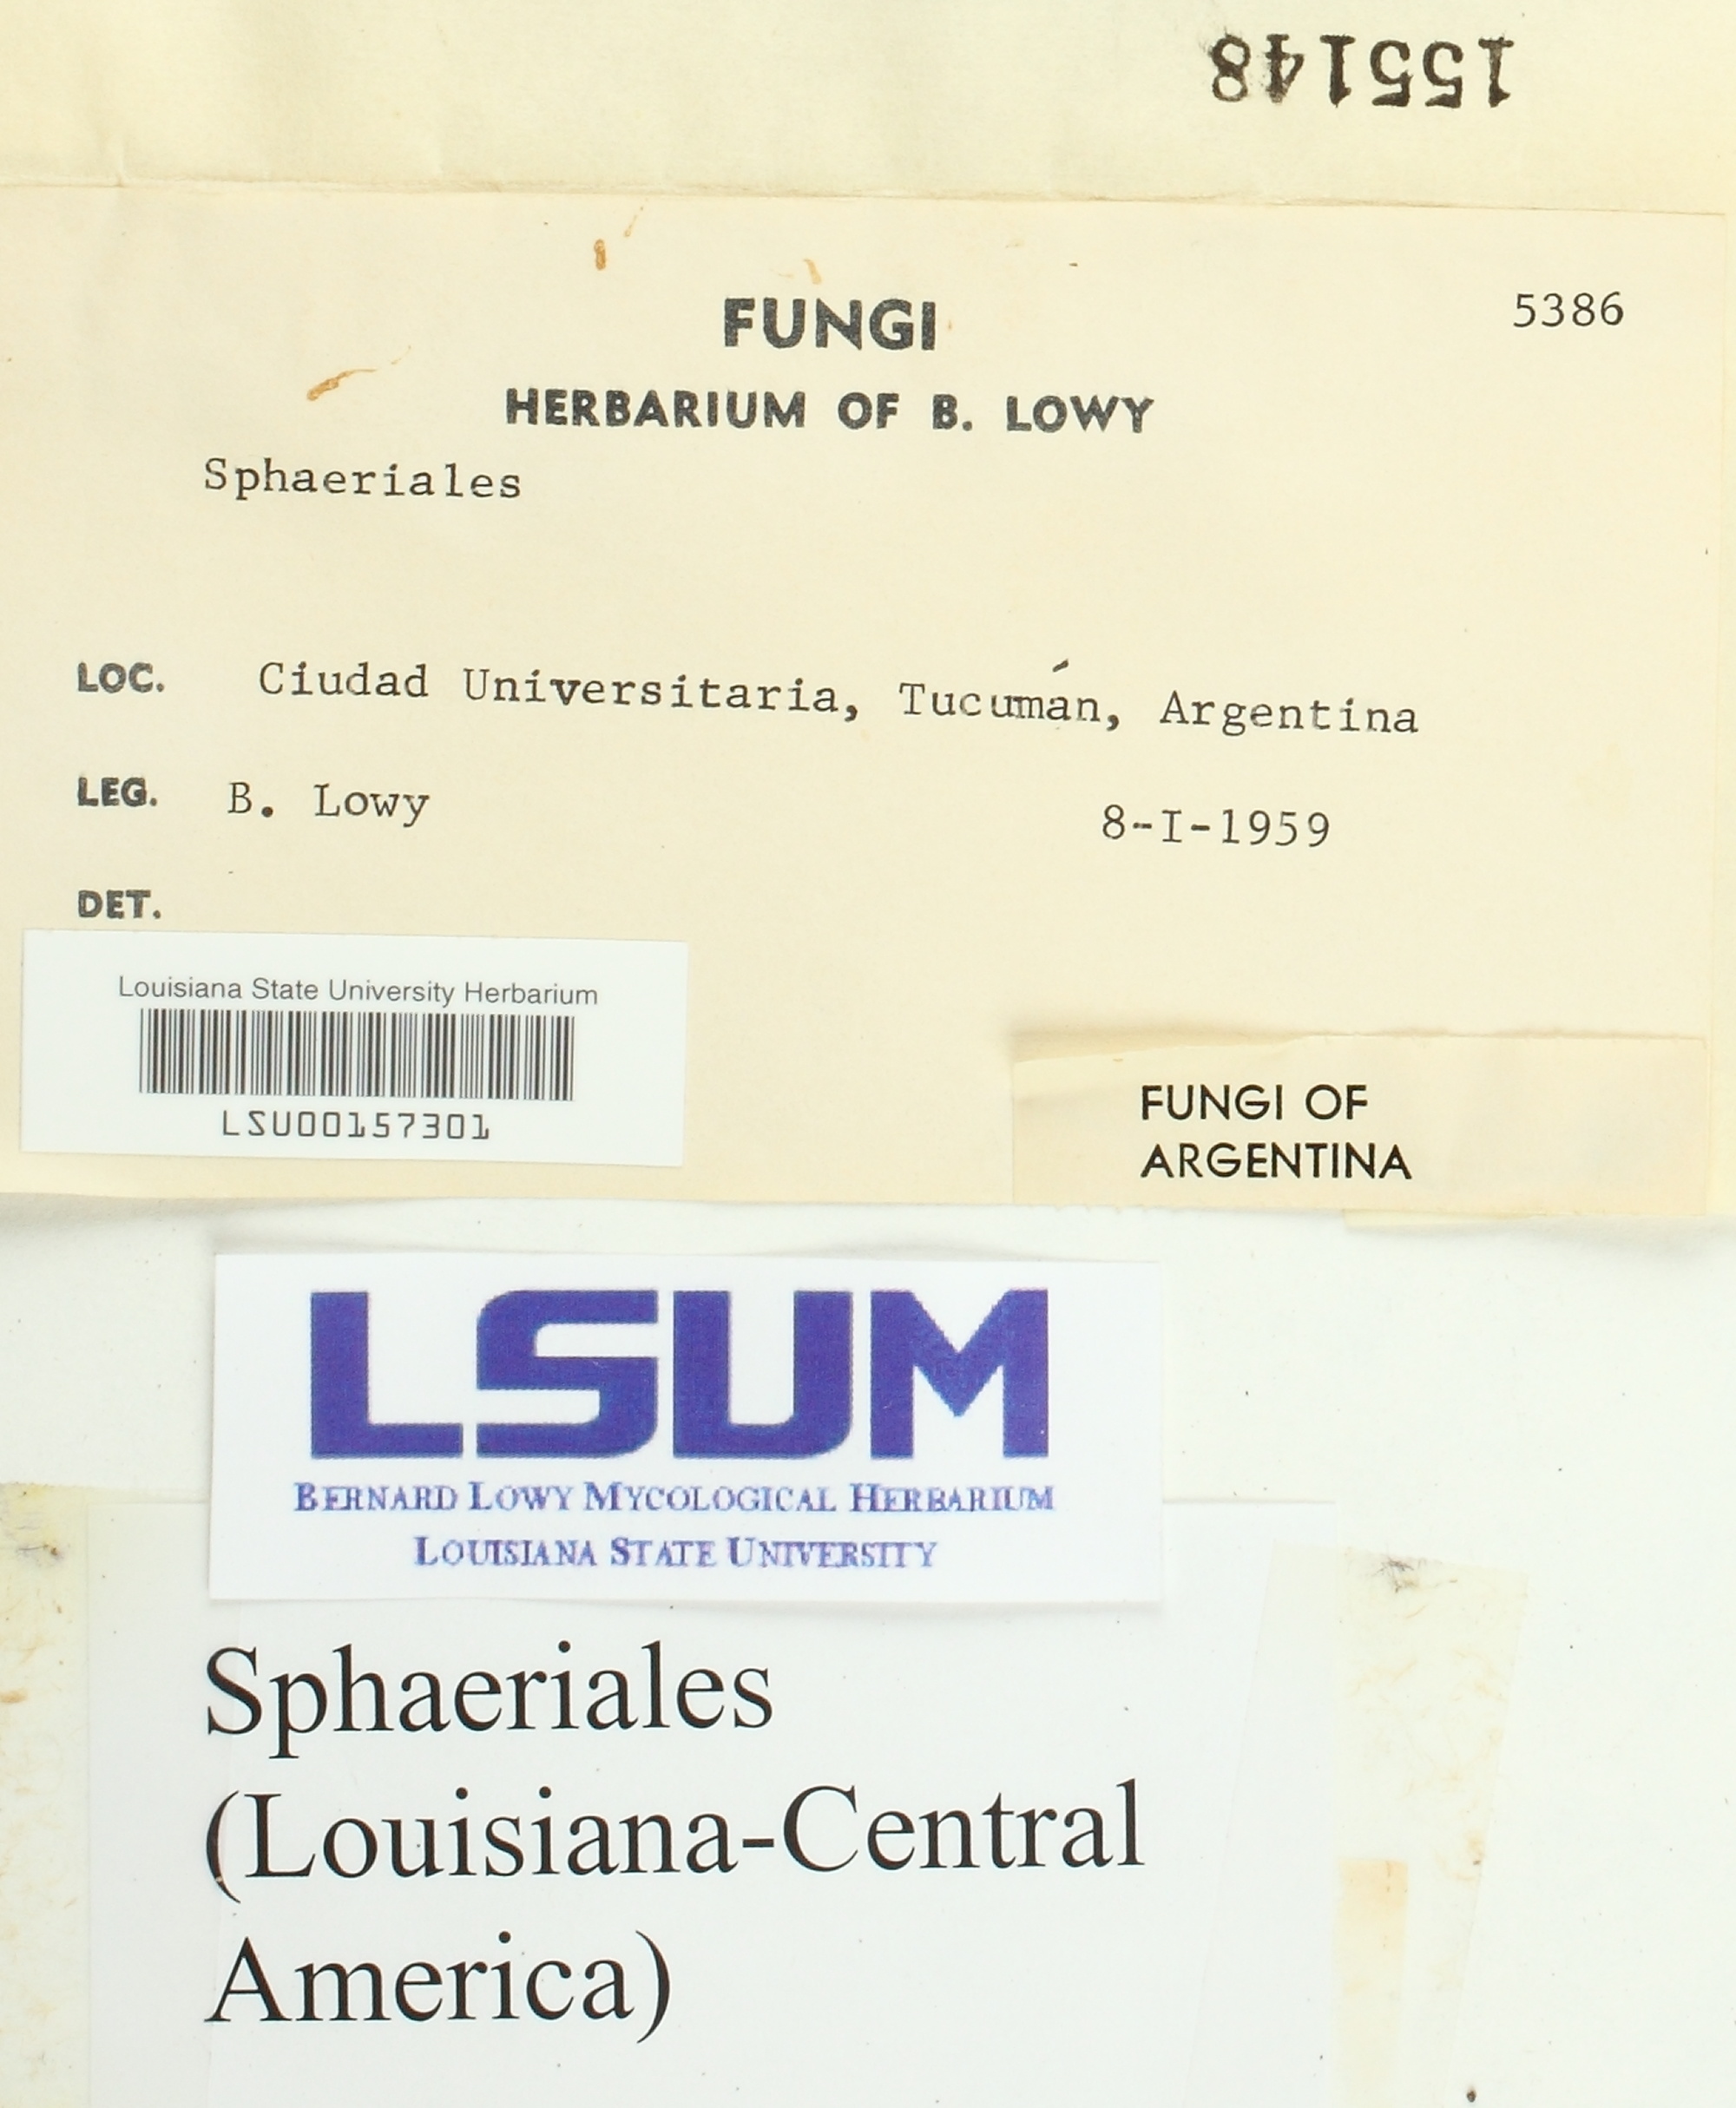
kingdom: Fungi
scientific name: Fungi
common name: Fungi
